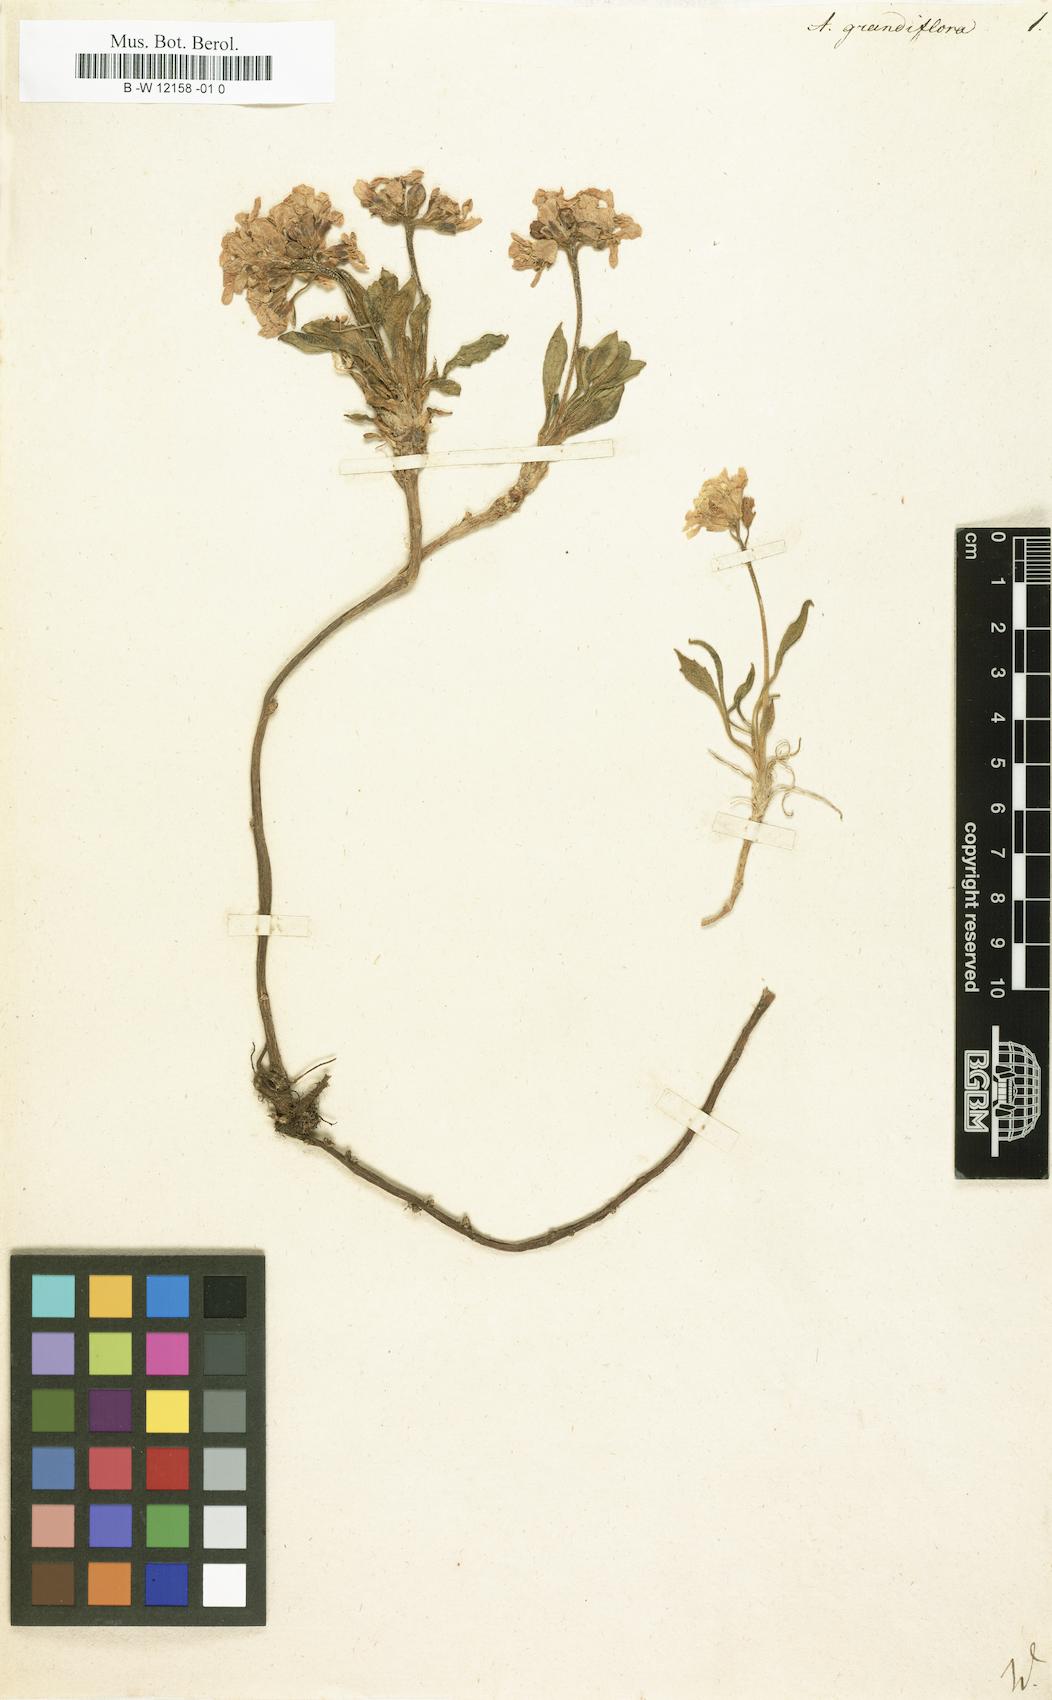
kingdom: Plantae
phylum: Tracheophyta
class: Magnoliopsida
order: Brassicales
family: Brassicaceae
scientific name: Brassicaceae
